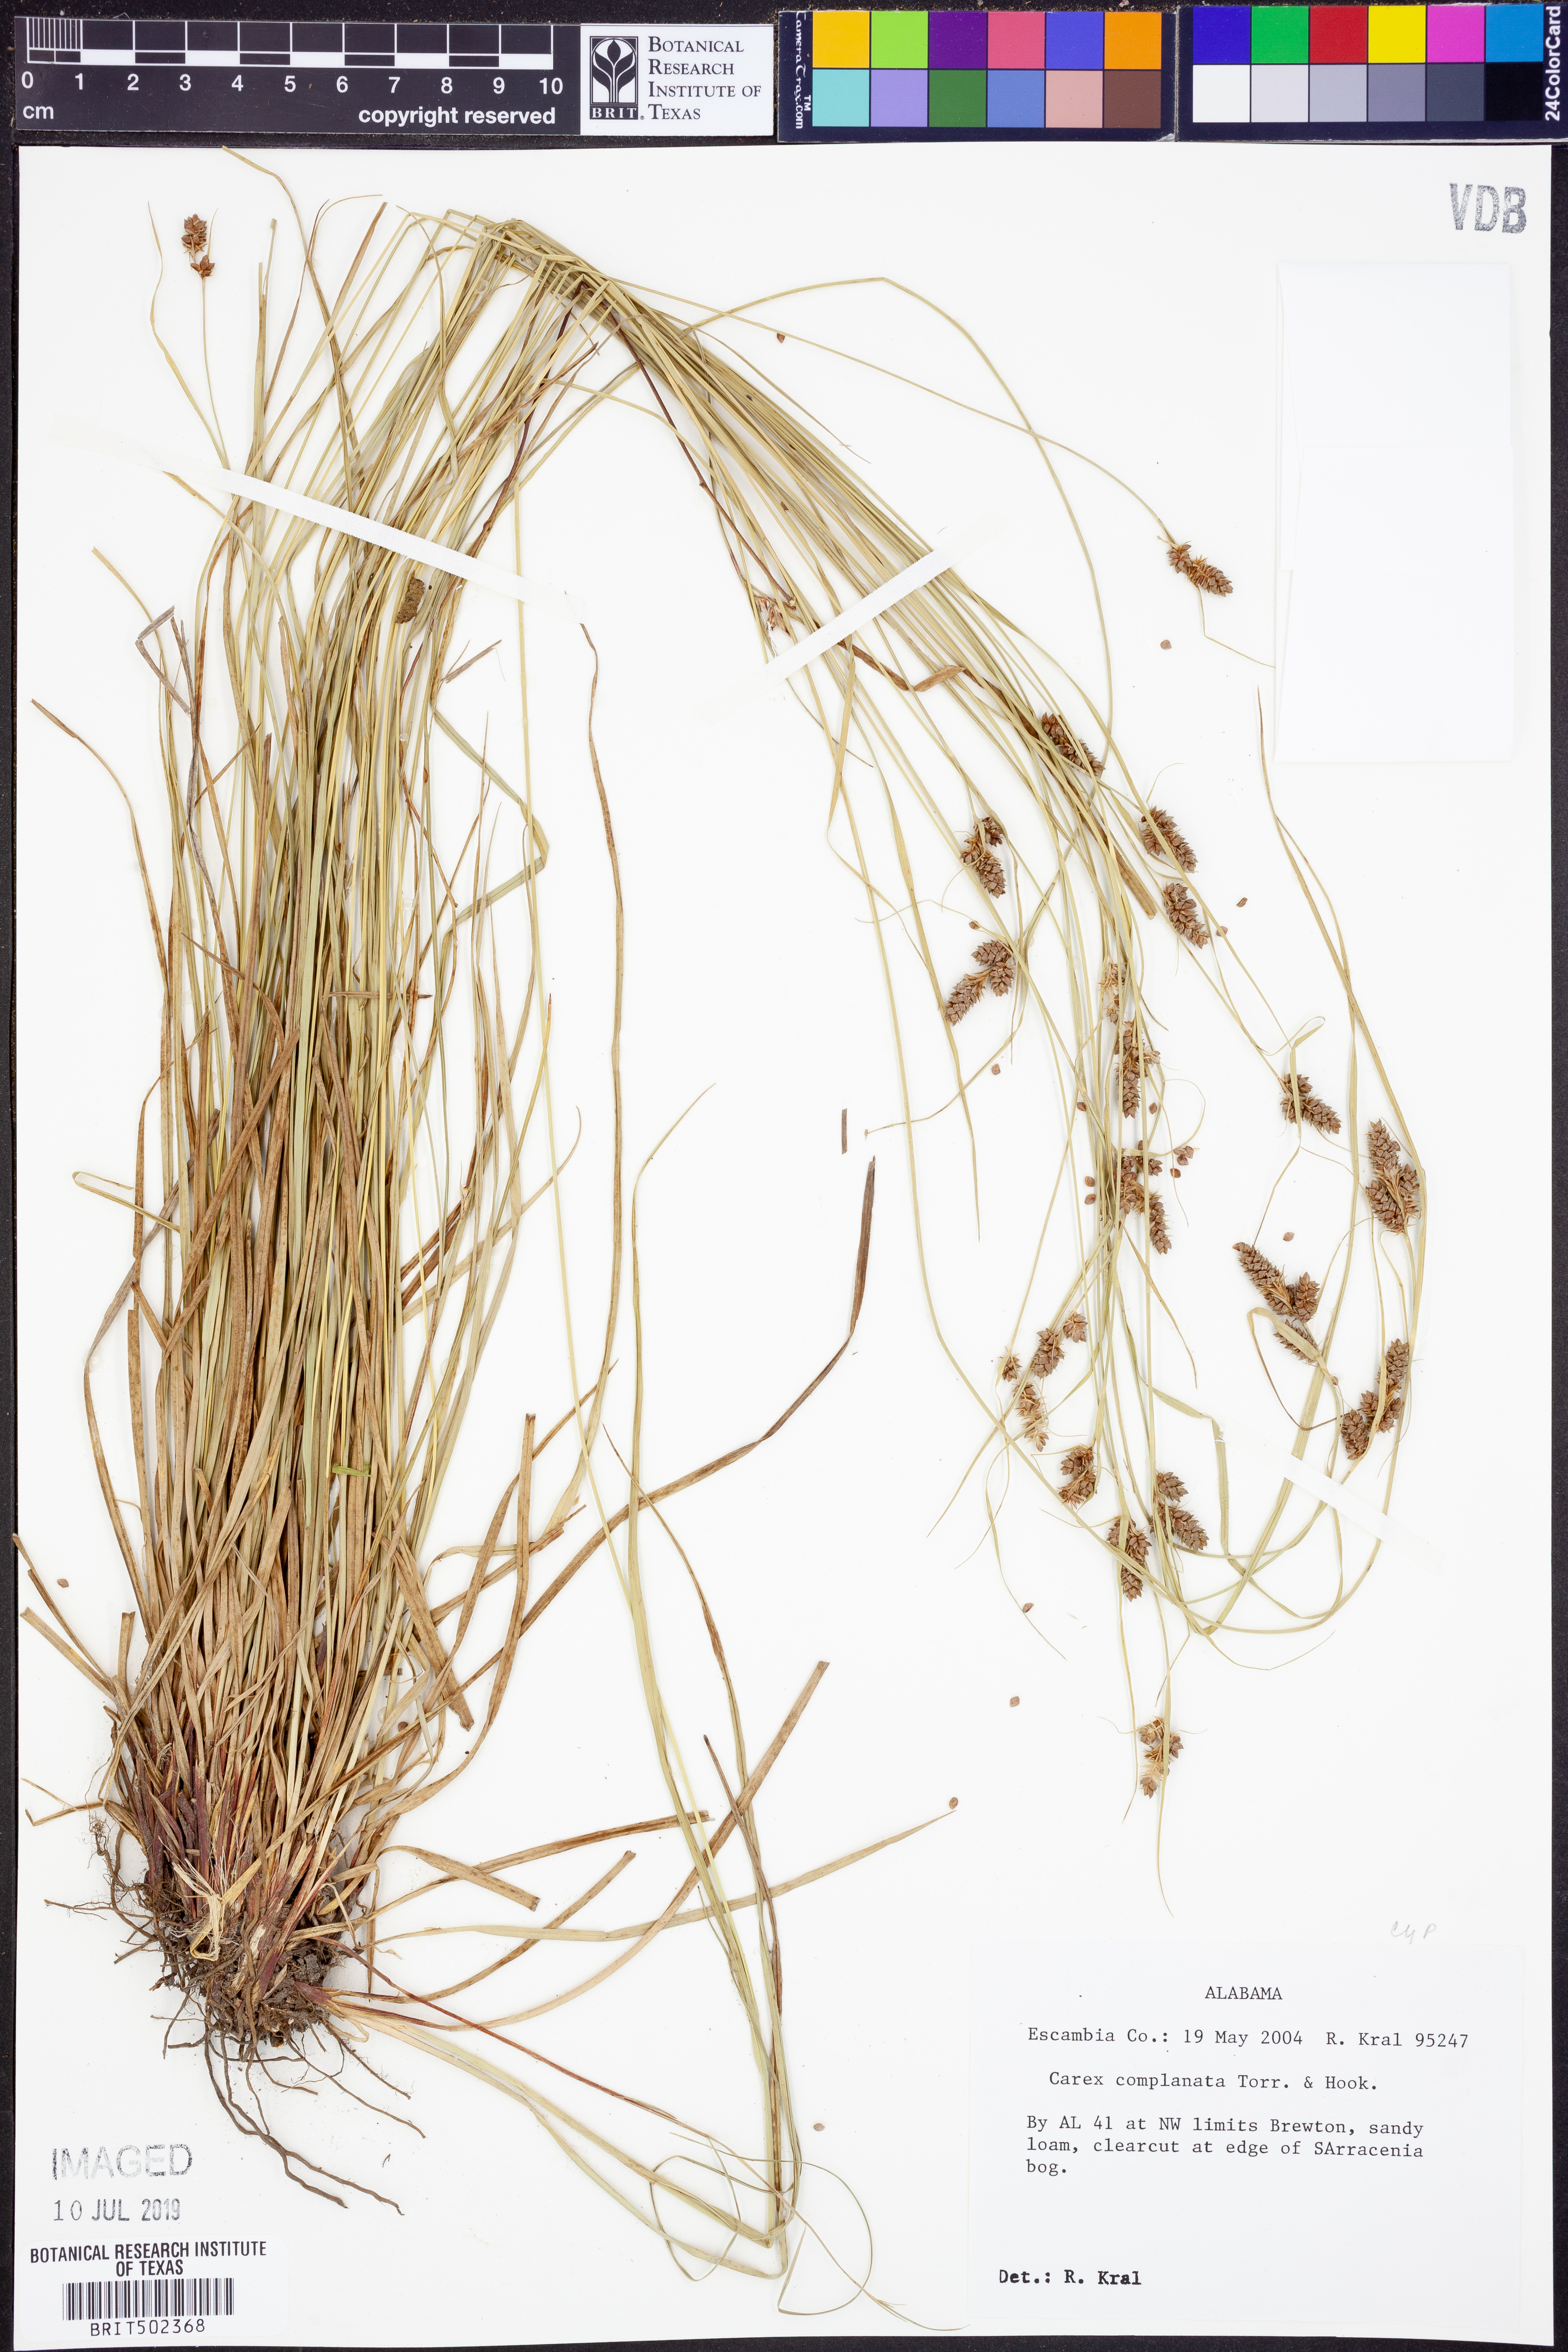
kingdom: Plantae
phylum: Tracheophyta
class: Liliopsida
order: Poales
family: Cyperaceae
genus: Carex
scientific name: Carex complanata
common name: Hirsute sedge
